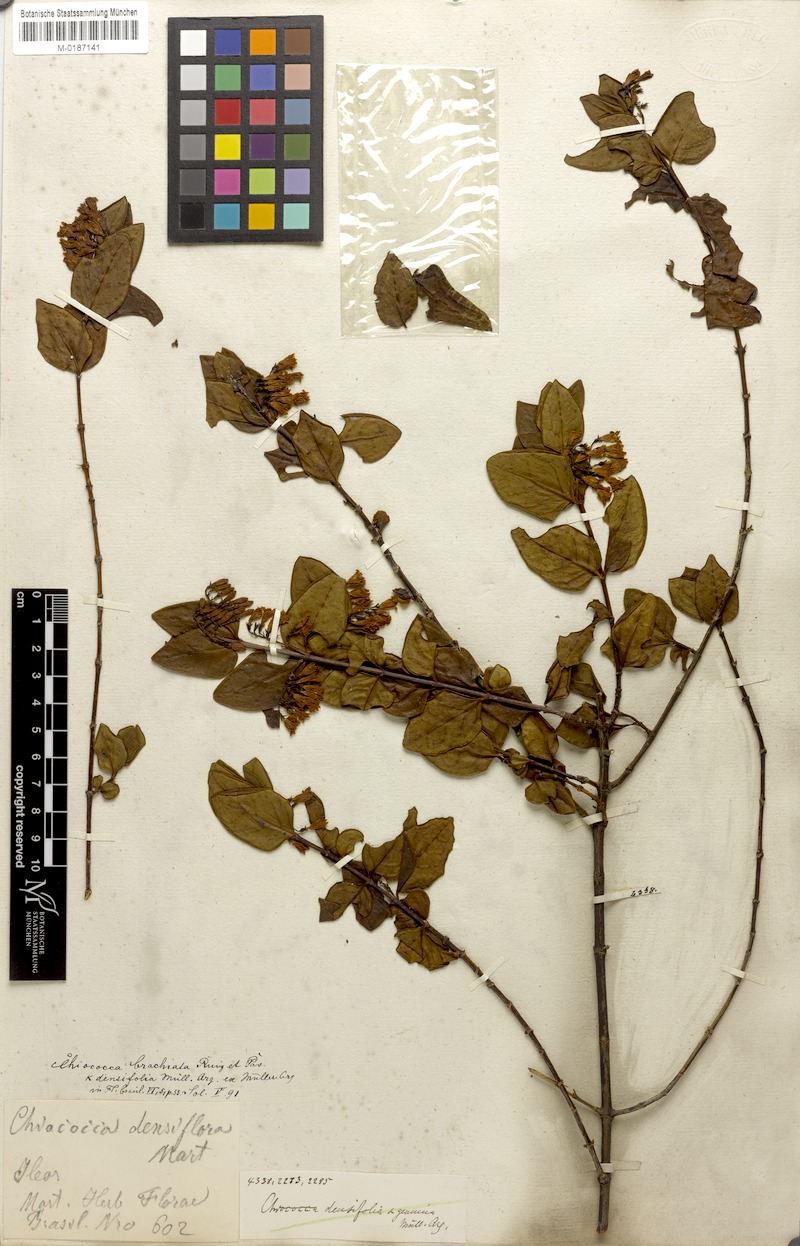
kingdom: Plantae
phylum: Tracheophyta
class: Magnoliopsida
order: Gentianales
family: Rubiaceae
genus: Chiococca
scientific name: Chiococca alba
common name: Snowberry
